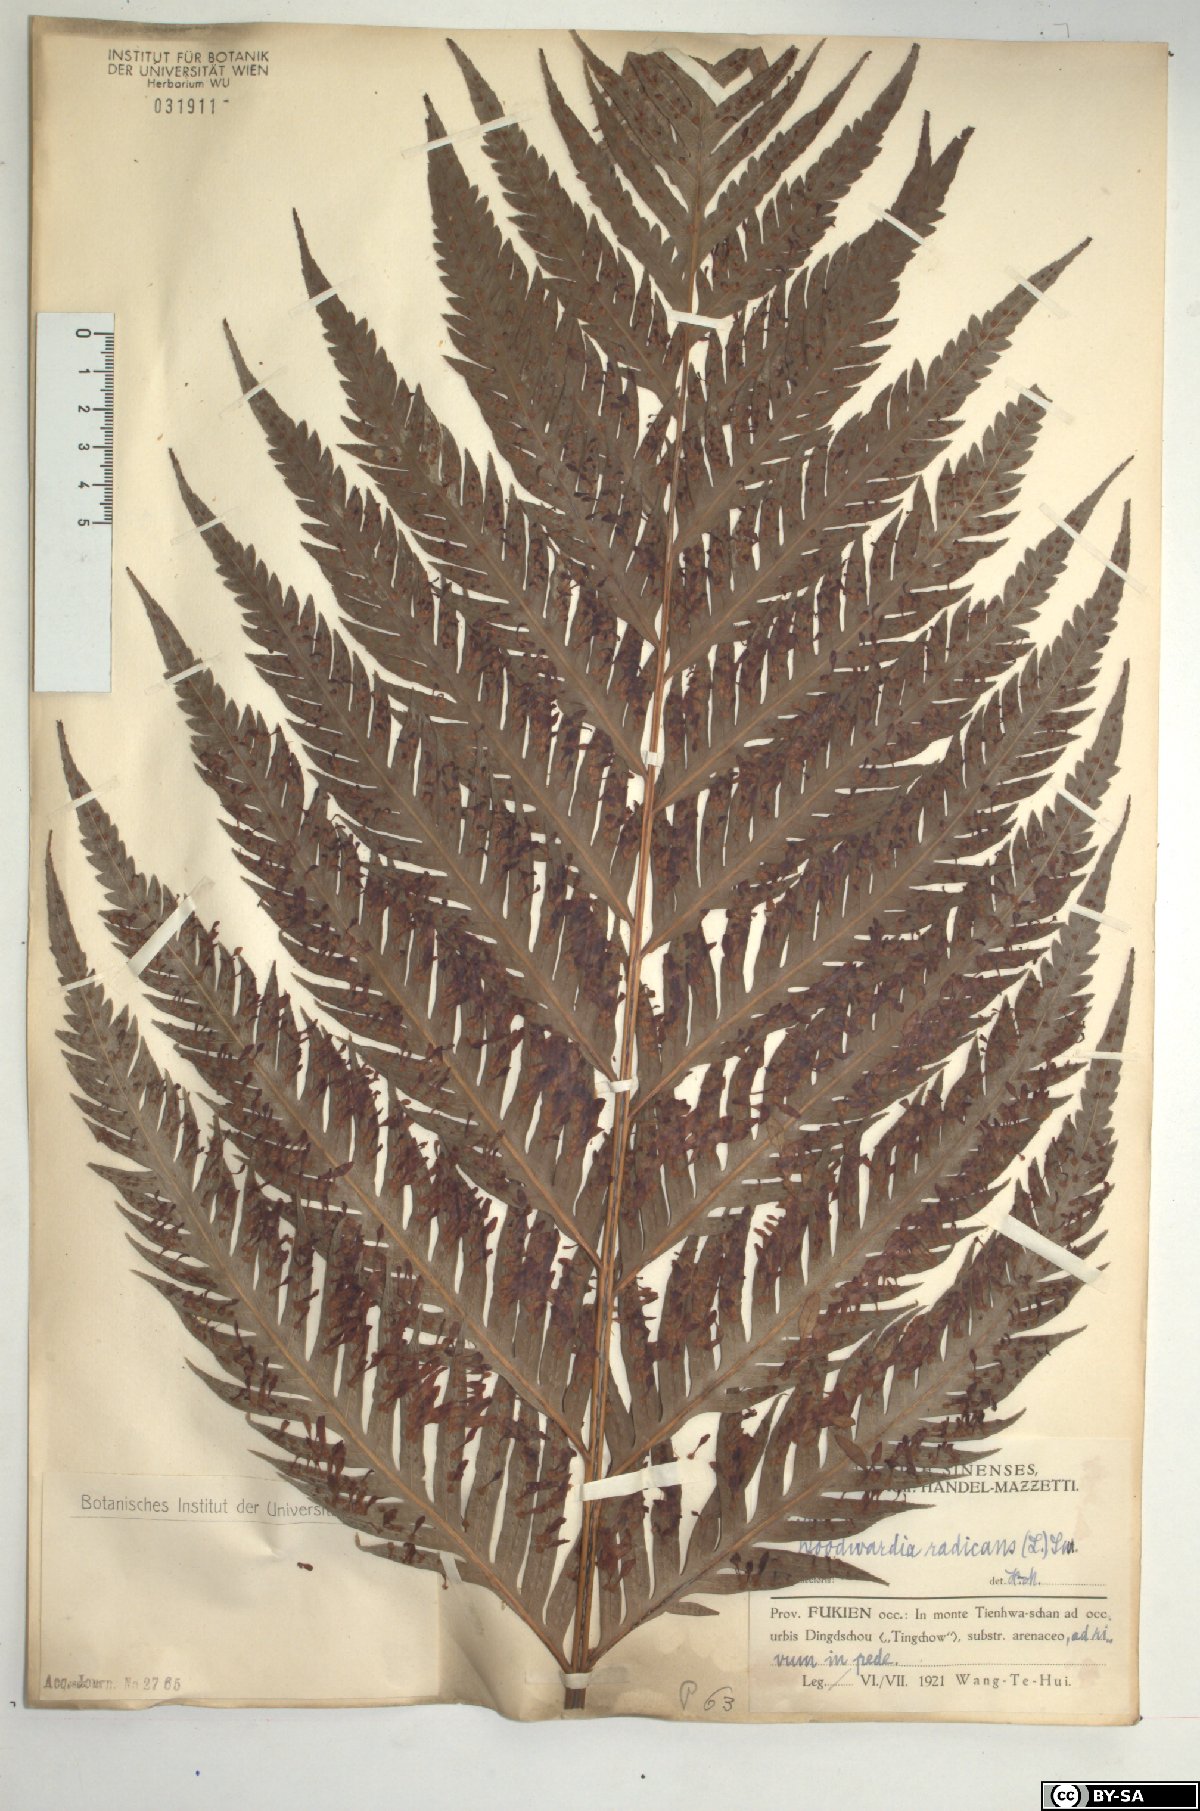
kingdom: Plantae
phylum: Tracheophyta
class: Polypodiopsida
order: Polypodiales
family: Blechnaceae
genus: Woodwardia
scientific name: Woodwardia radicans
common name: Rooting chainfern
